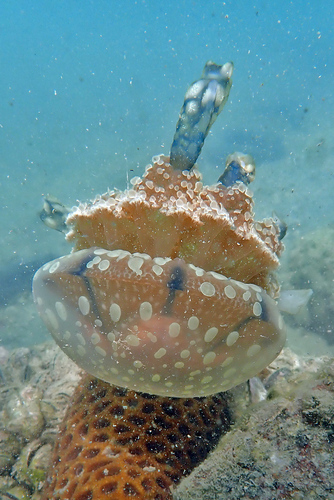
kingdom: Animalia
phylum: Cnidaria
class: Scyphozoa
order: Rhizostomeae
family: Mastigiidae
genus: Mastigias
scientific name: Mastigias papua
